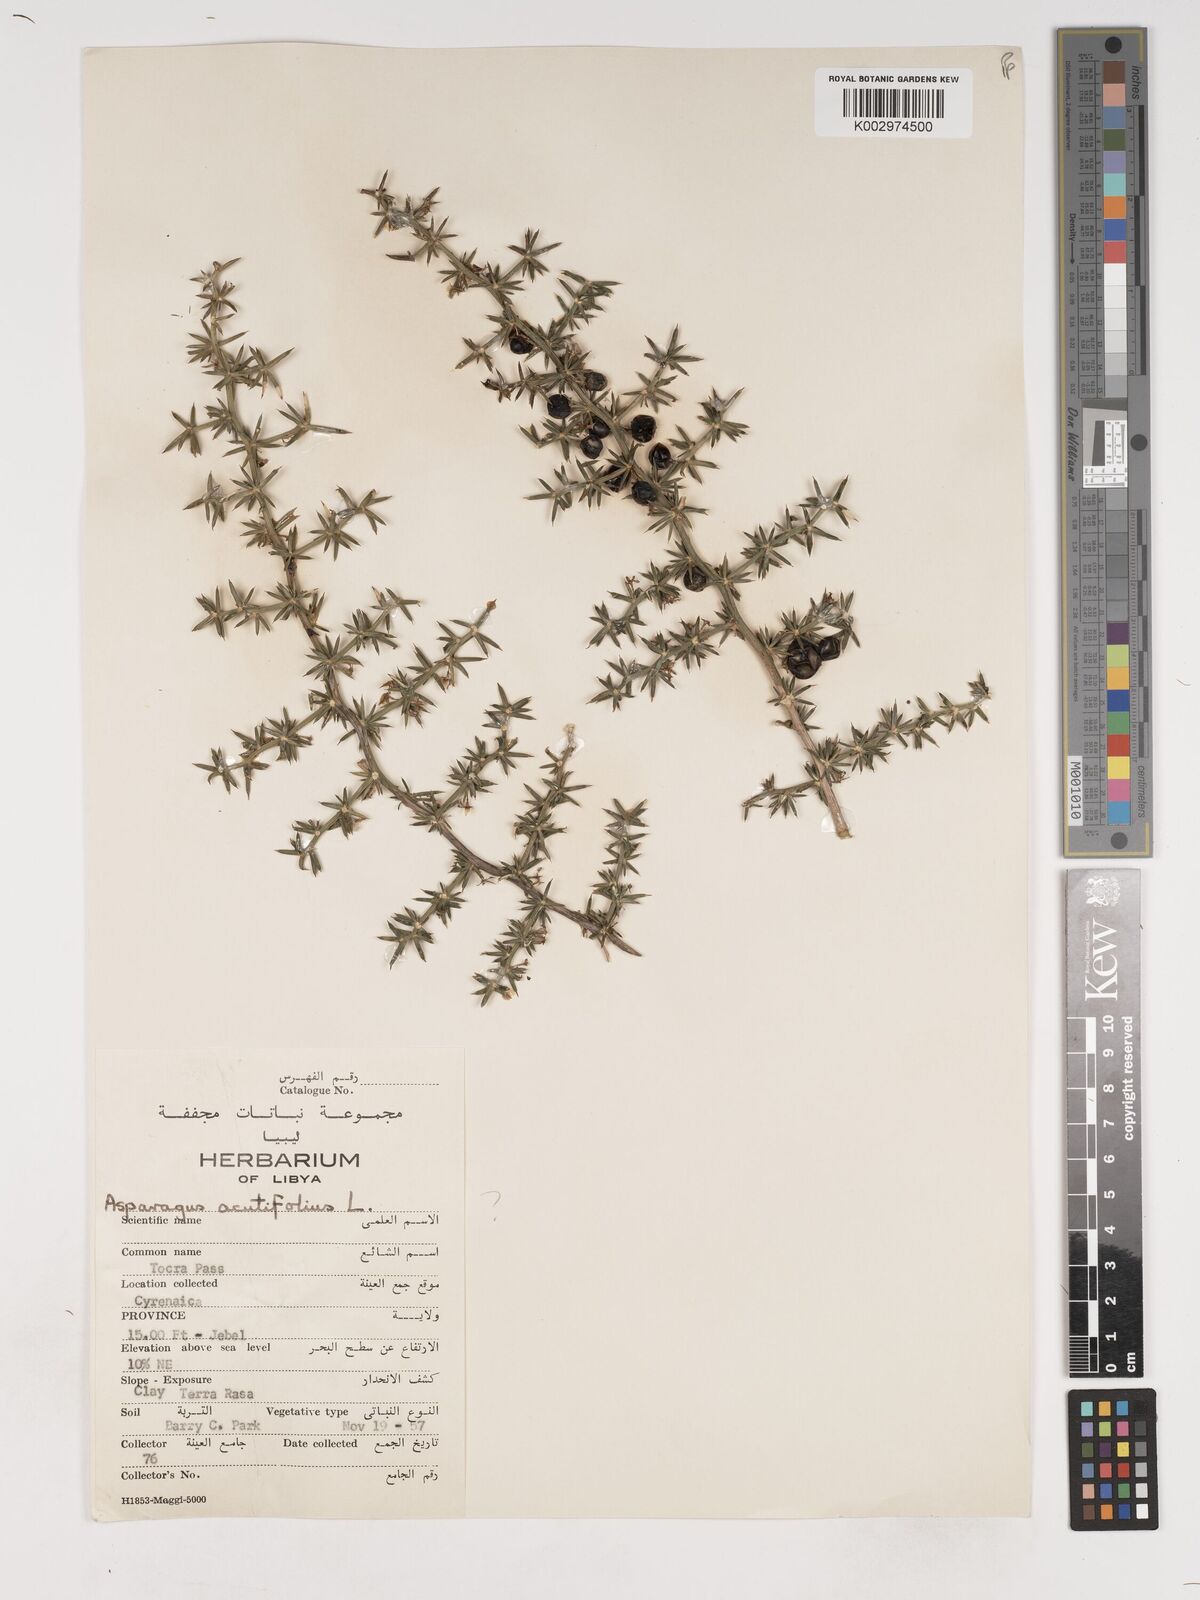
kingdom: Plantae
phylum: Tracheophyta
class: Liliopsida
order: Asparagales
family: Asparagaceae
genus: Asparagus
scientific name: Asparagus acutifolius
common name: Wild asparagus
